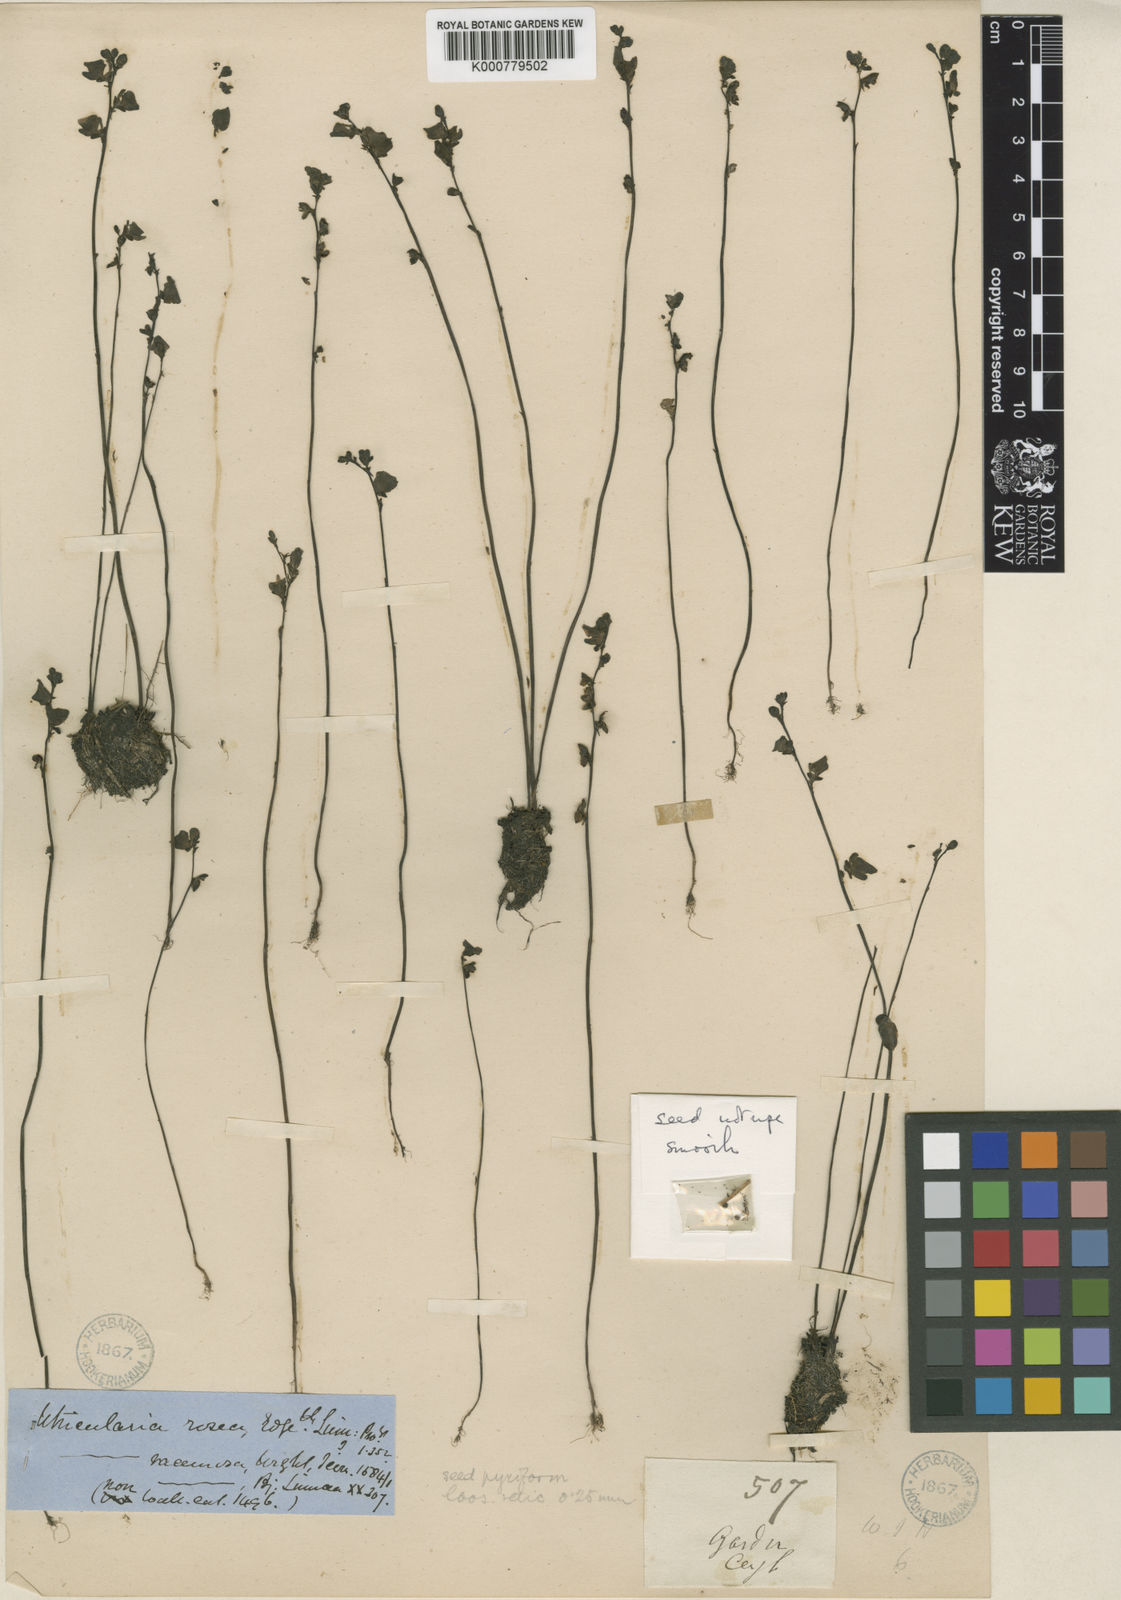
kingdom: Plantae
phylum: Tracheophyta
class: Magnoliopsida
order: Lamiales
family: Lentibulariaceae
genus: Utricularia
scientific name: Utricularia caerulea
